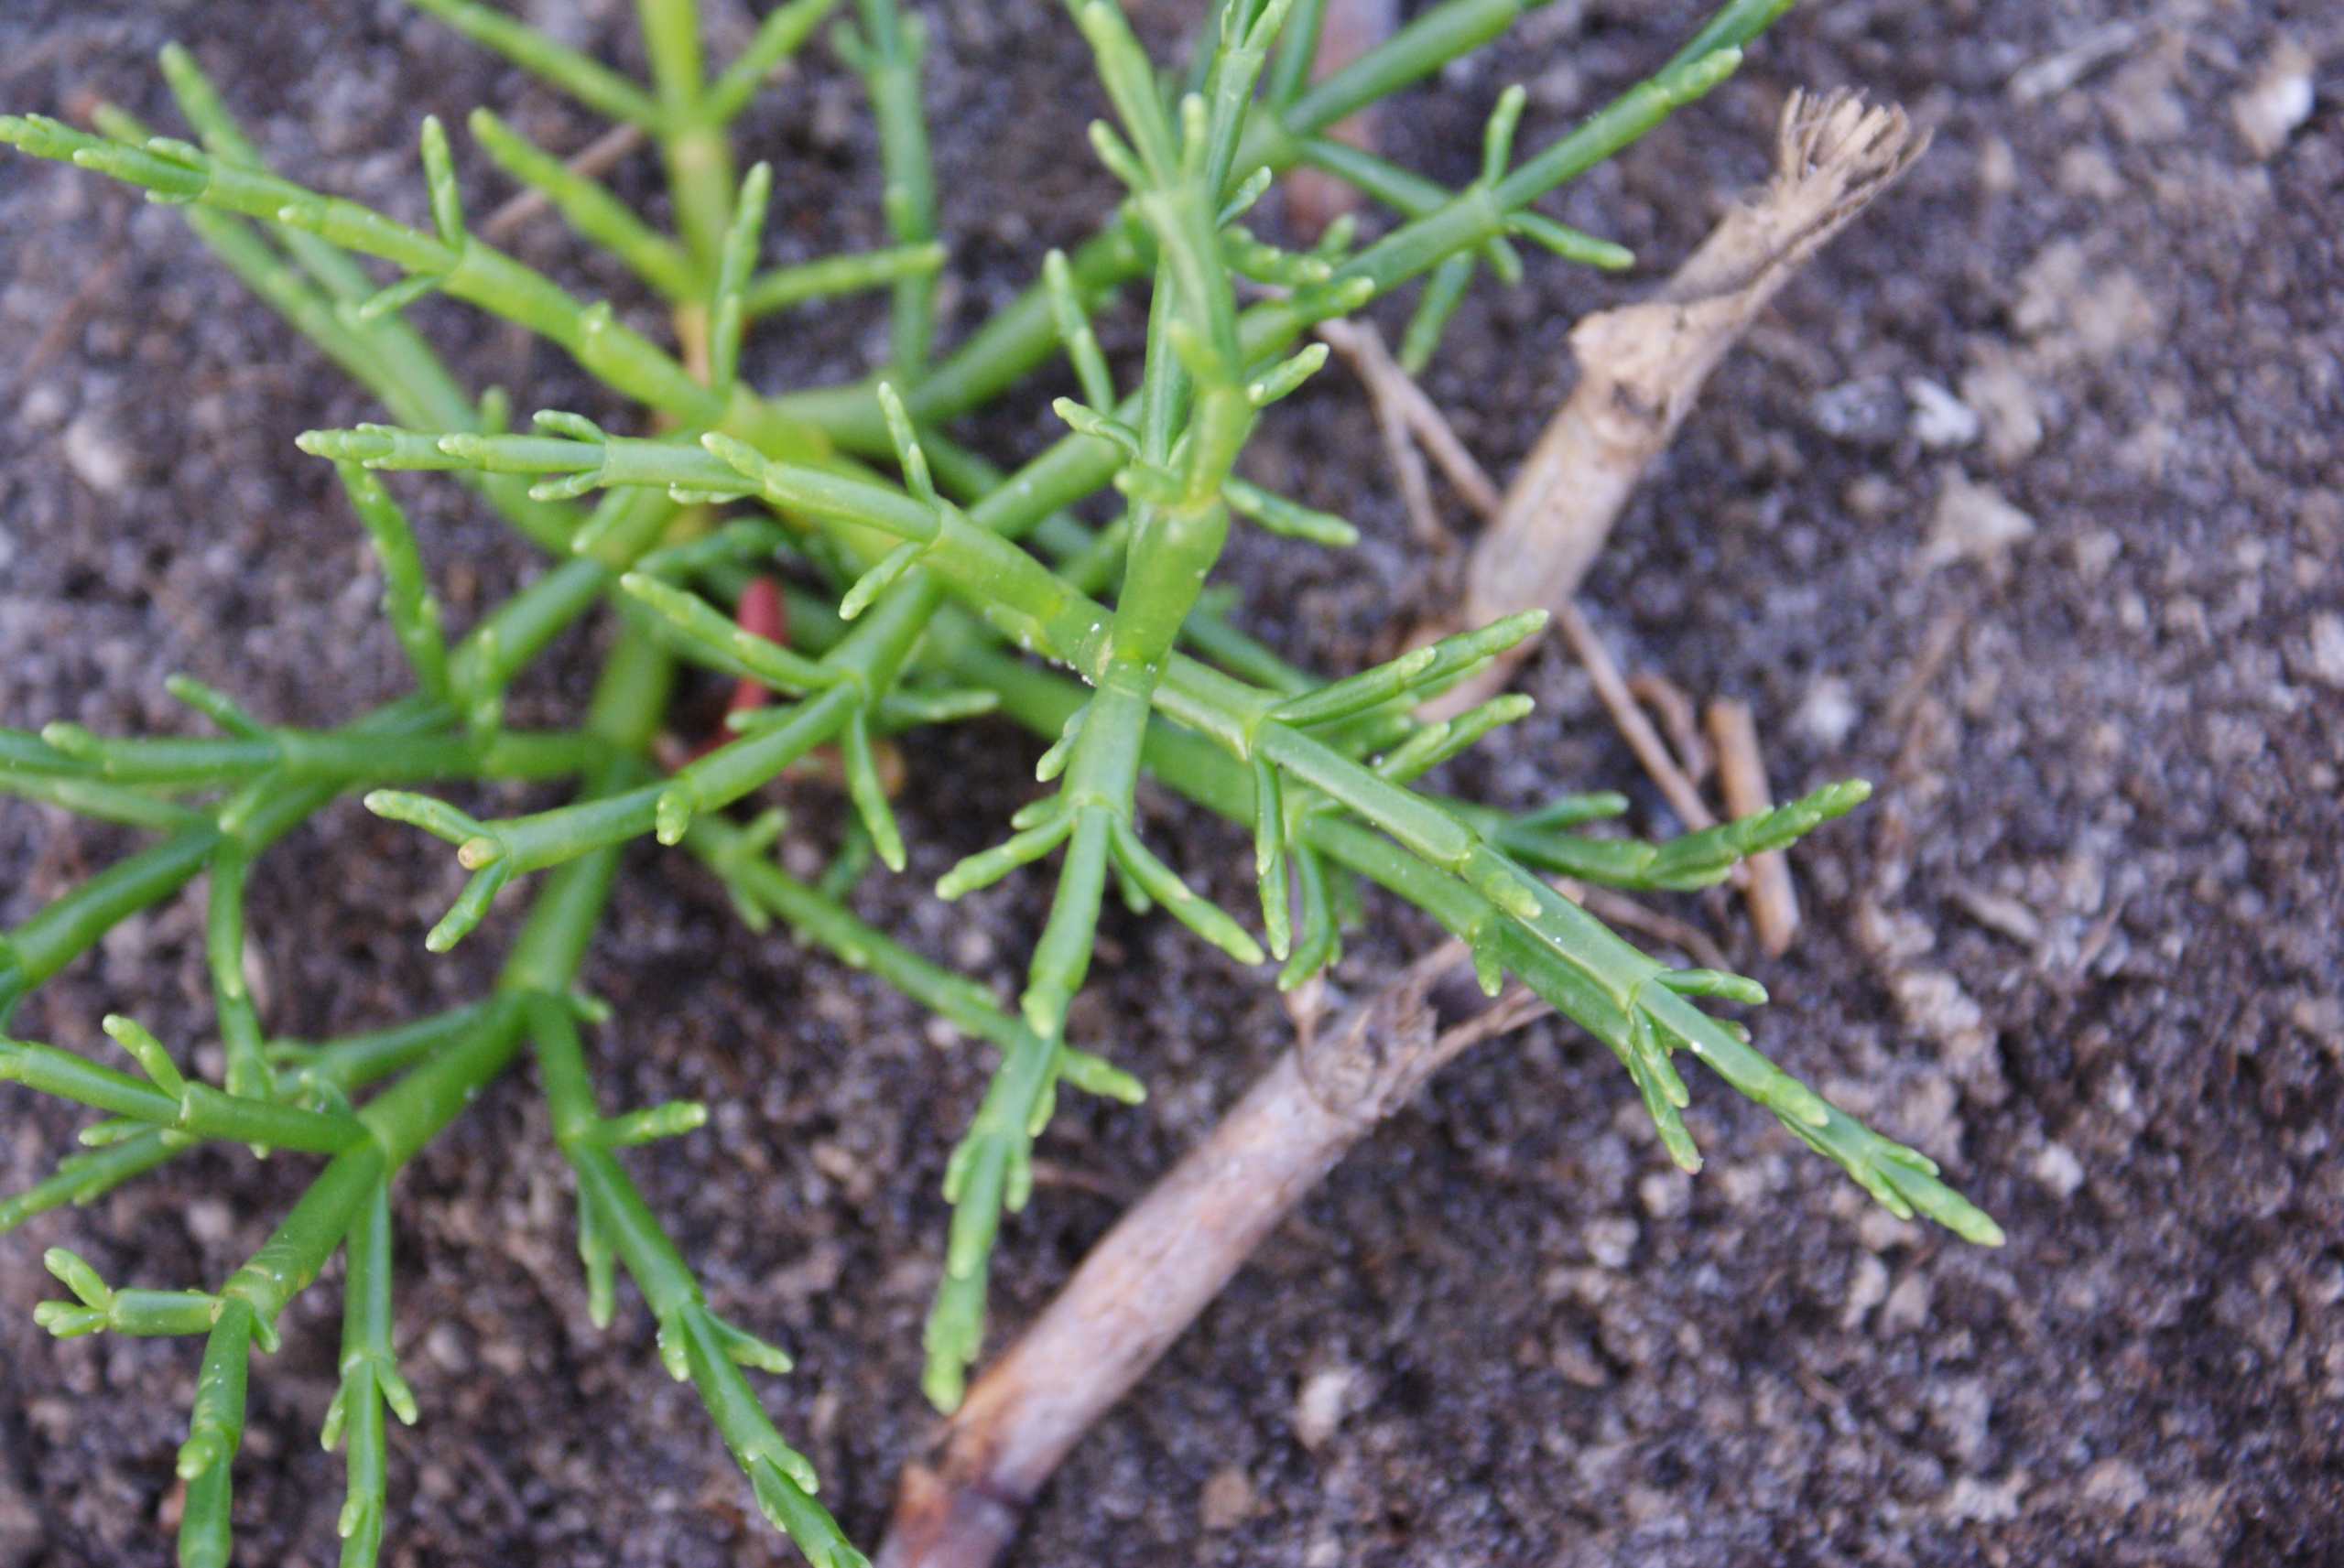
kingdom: Plantae
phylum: Tracheophyta
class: Magnoliopsida
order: Caryophyllales
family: Amaranthaceae
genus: Salicornia
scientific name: Salicornia europaea
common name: Almindelig salturt
